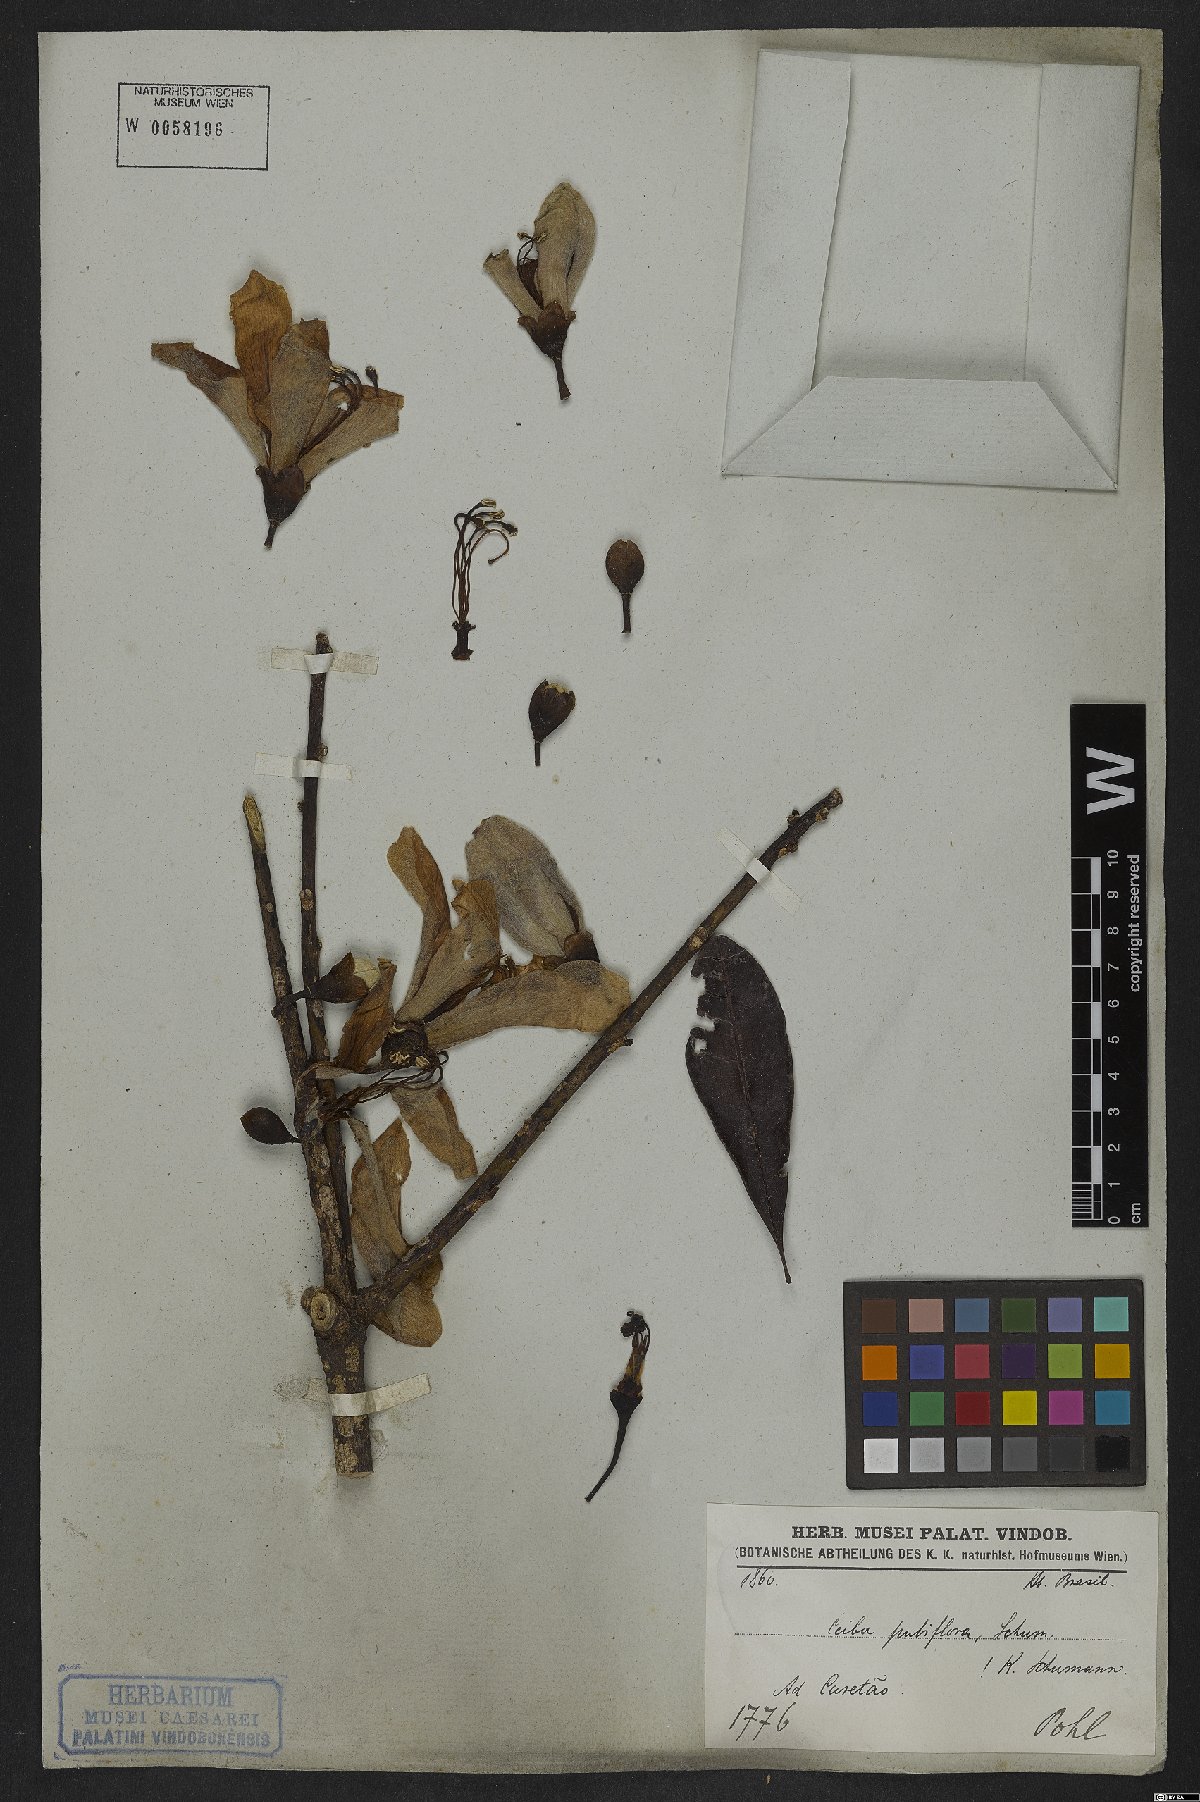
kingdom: Plantae
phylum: Tracheophyta
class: Magnoliopsida
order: Malvales
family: Malvaceae
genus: Ceiba
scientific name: Ceiba pubiflora
